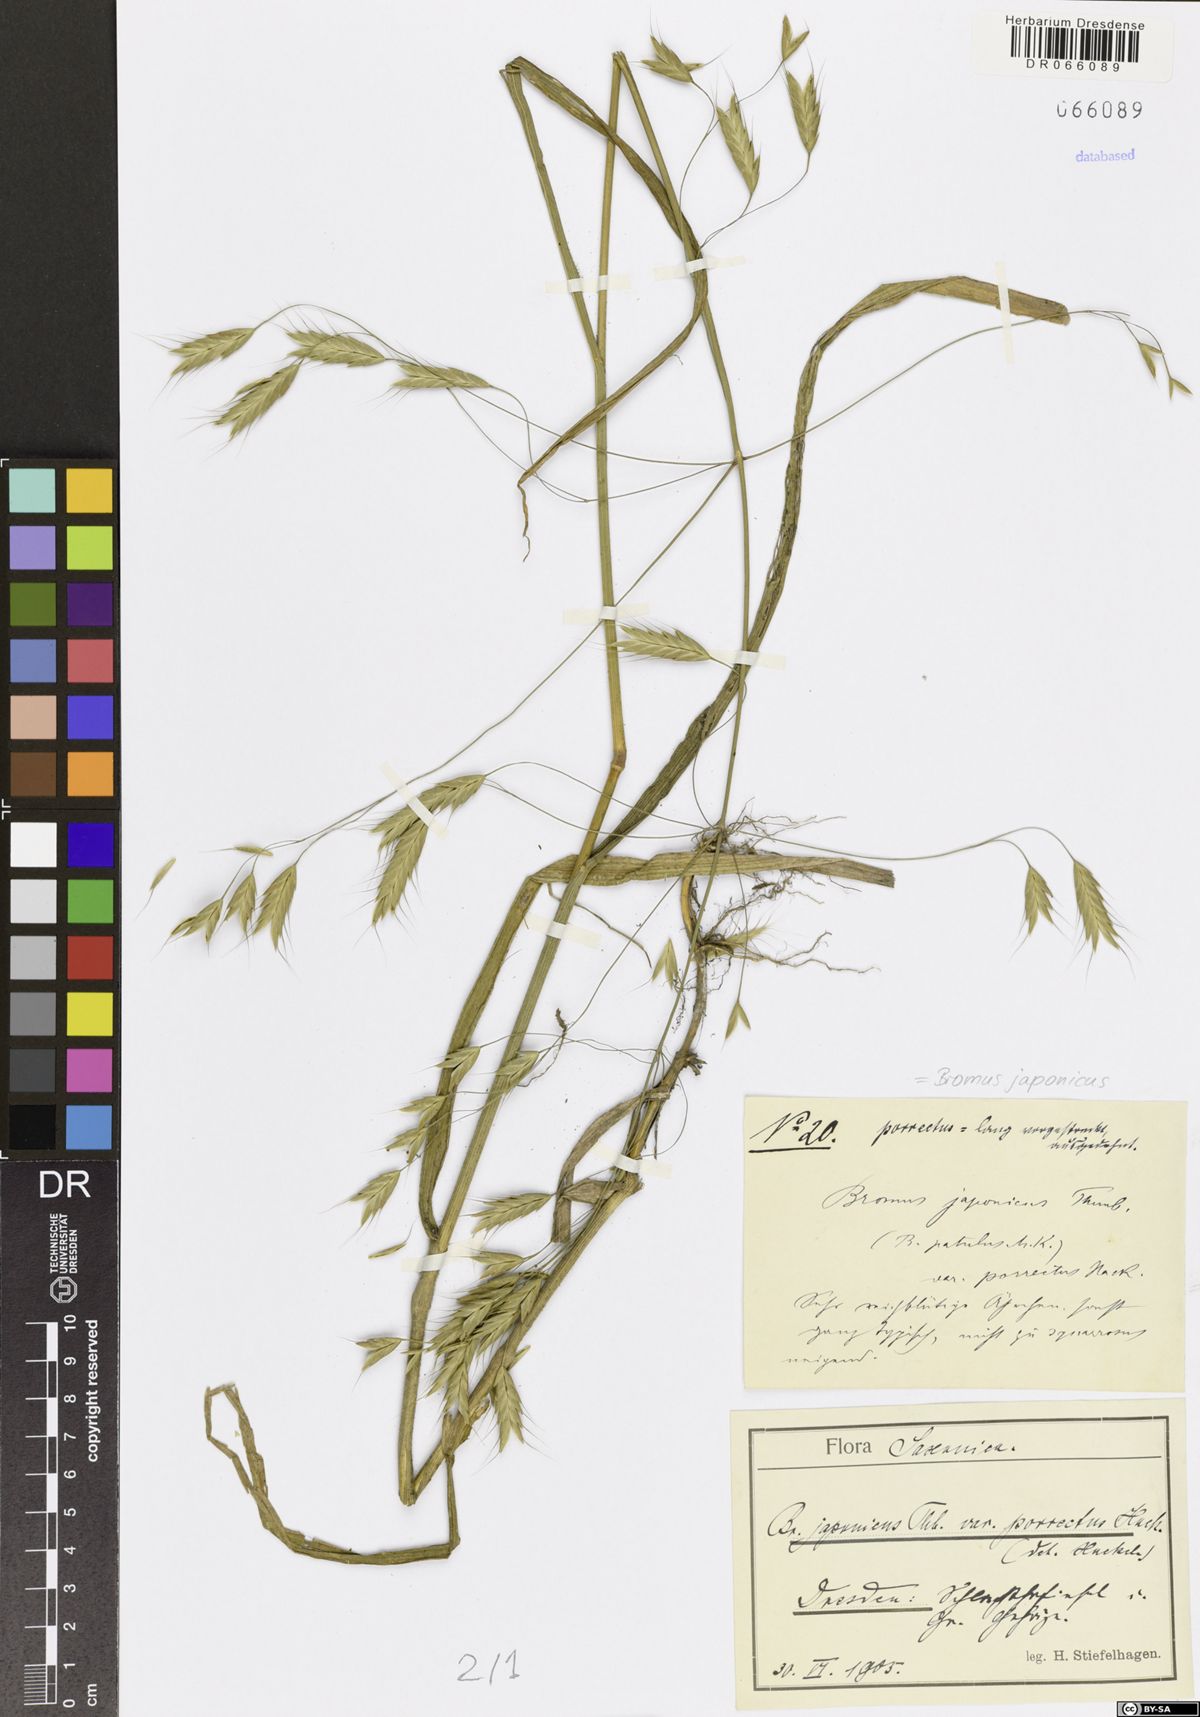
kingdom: Plantae
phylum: Tracheophyta
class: Liliopsida
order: Poales
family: Poaceae
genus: Bromus
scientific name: Bromus japonicus
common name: Japanese brome
